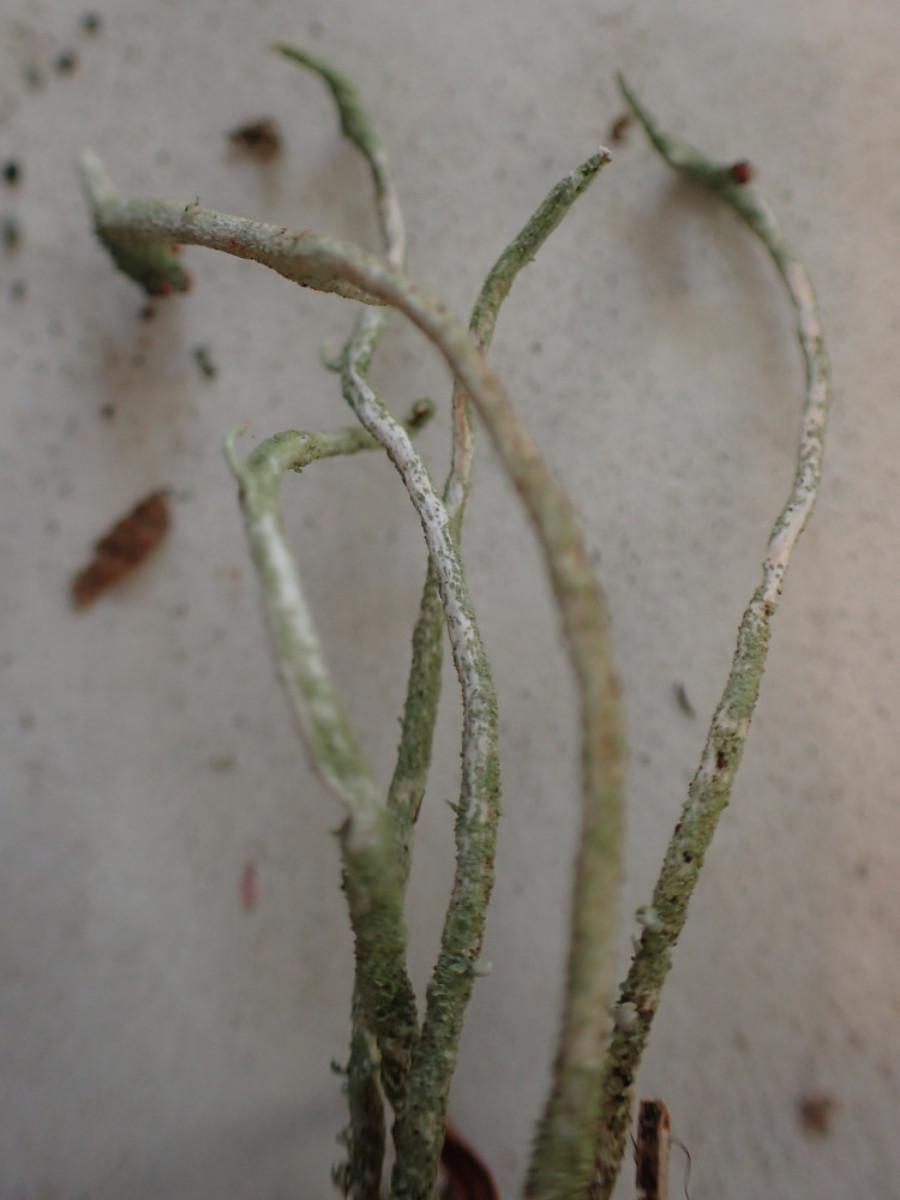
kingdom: Fungi
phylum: Ascomycota
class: Lecanoromycetes
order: Lecanorales
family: Cladoniaceae
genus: Cladonia
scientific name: Cladonia subulata
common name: spids bægerlav
